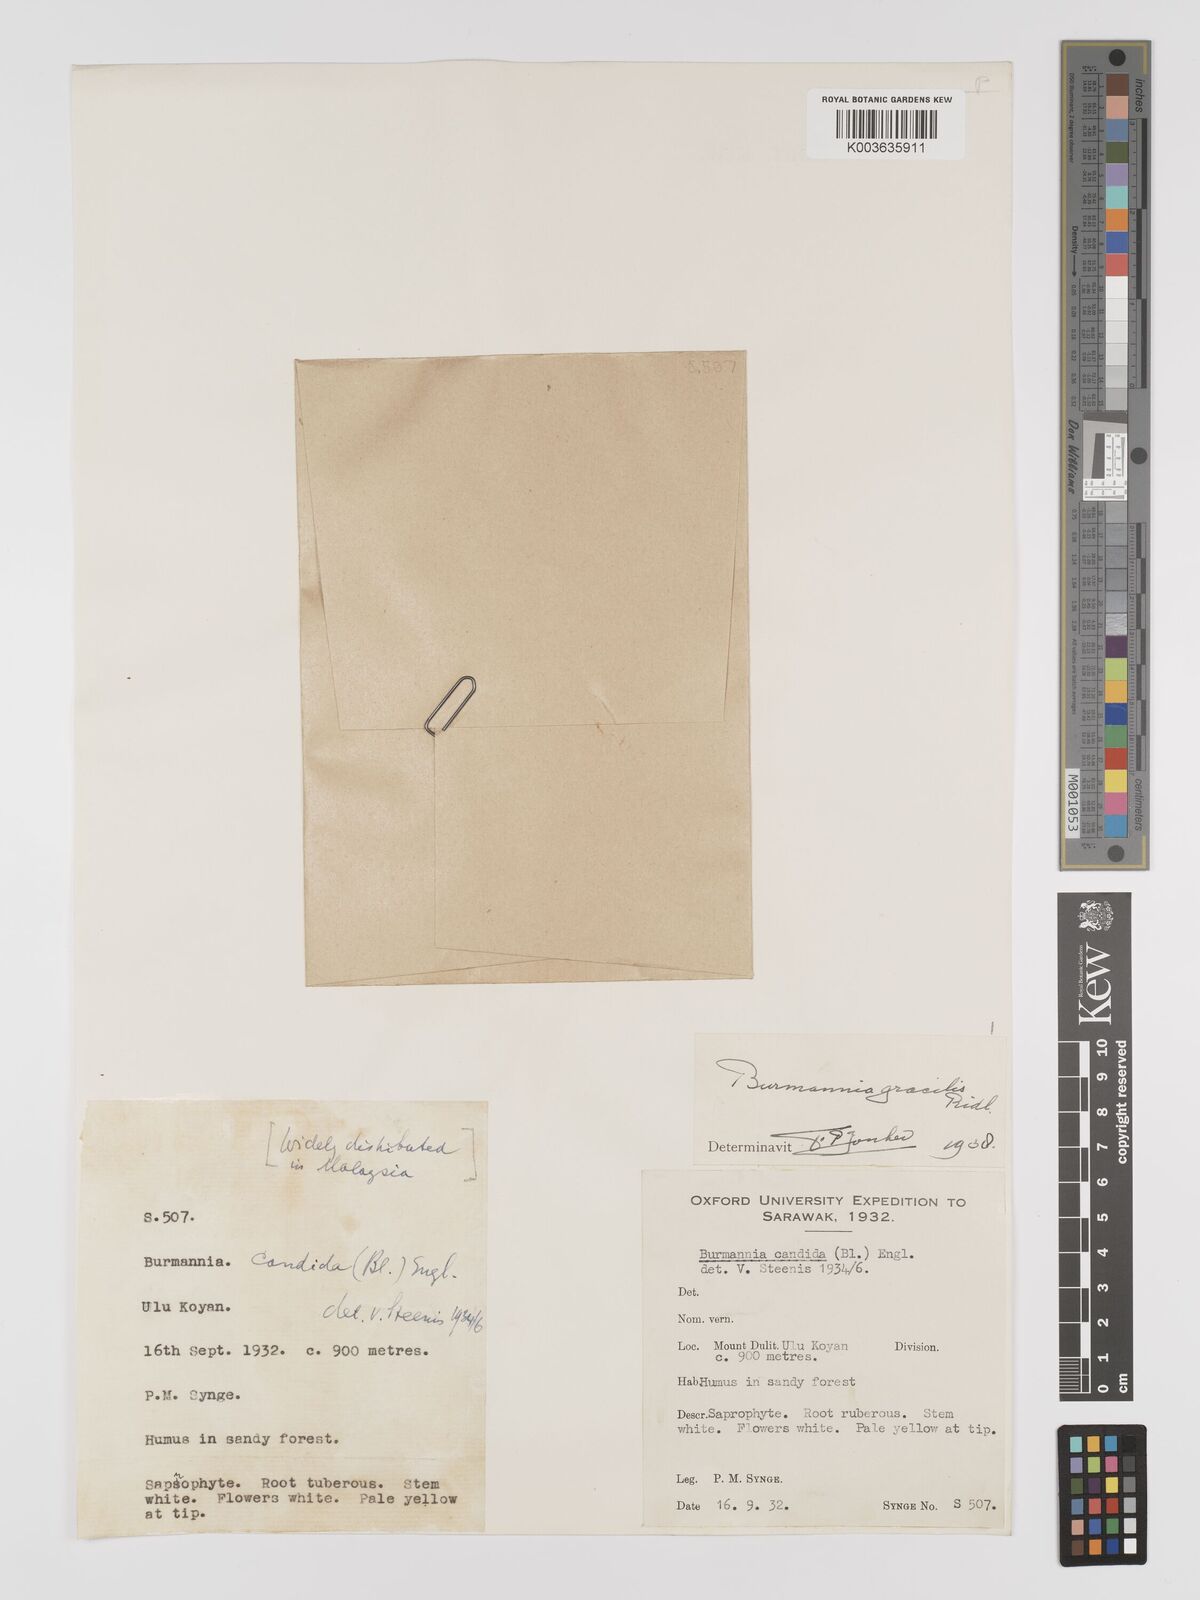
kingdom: Plantae
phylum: Tracheophyta
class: Liliopsida
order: Dioscoreales
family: Burmanniaceae
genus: Burmannia
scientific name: Burmannia lutescens
